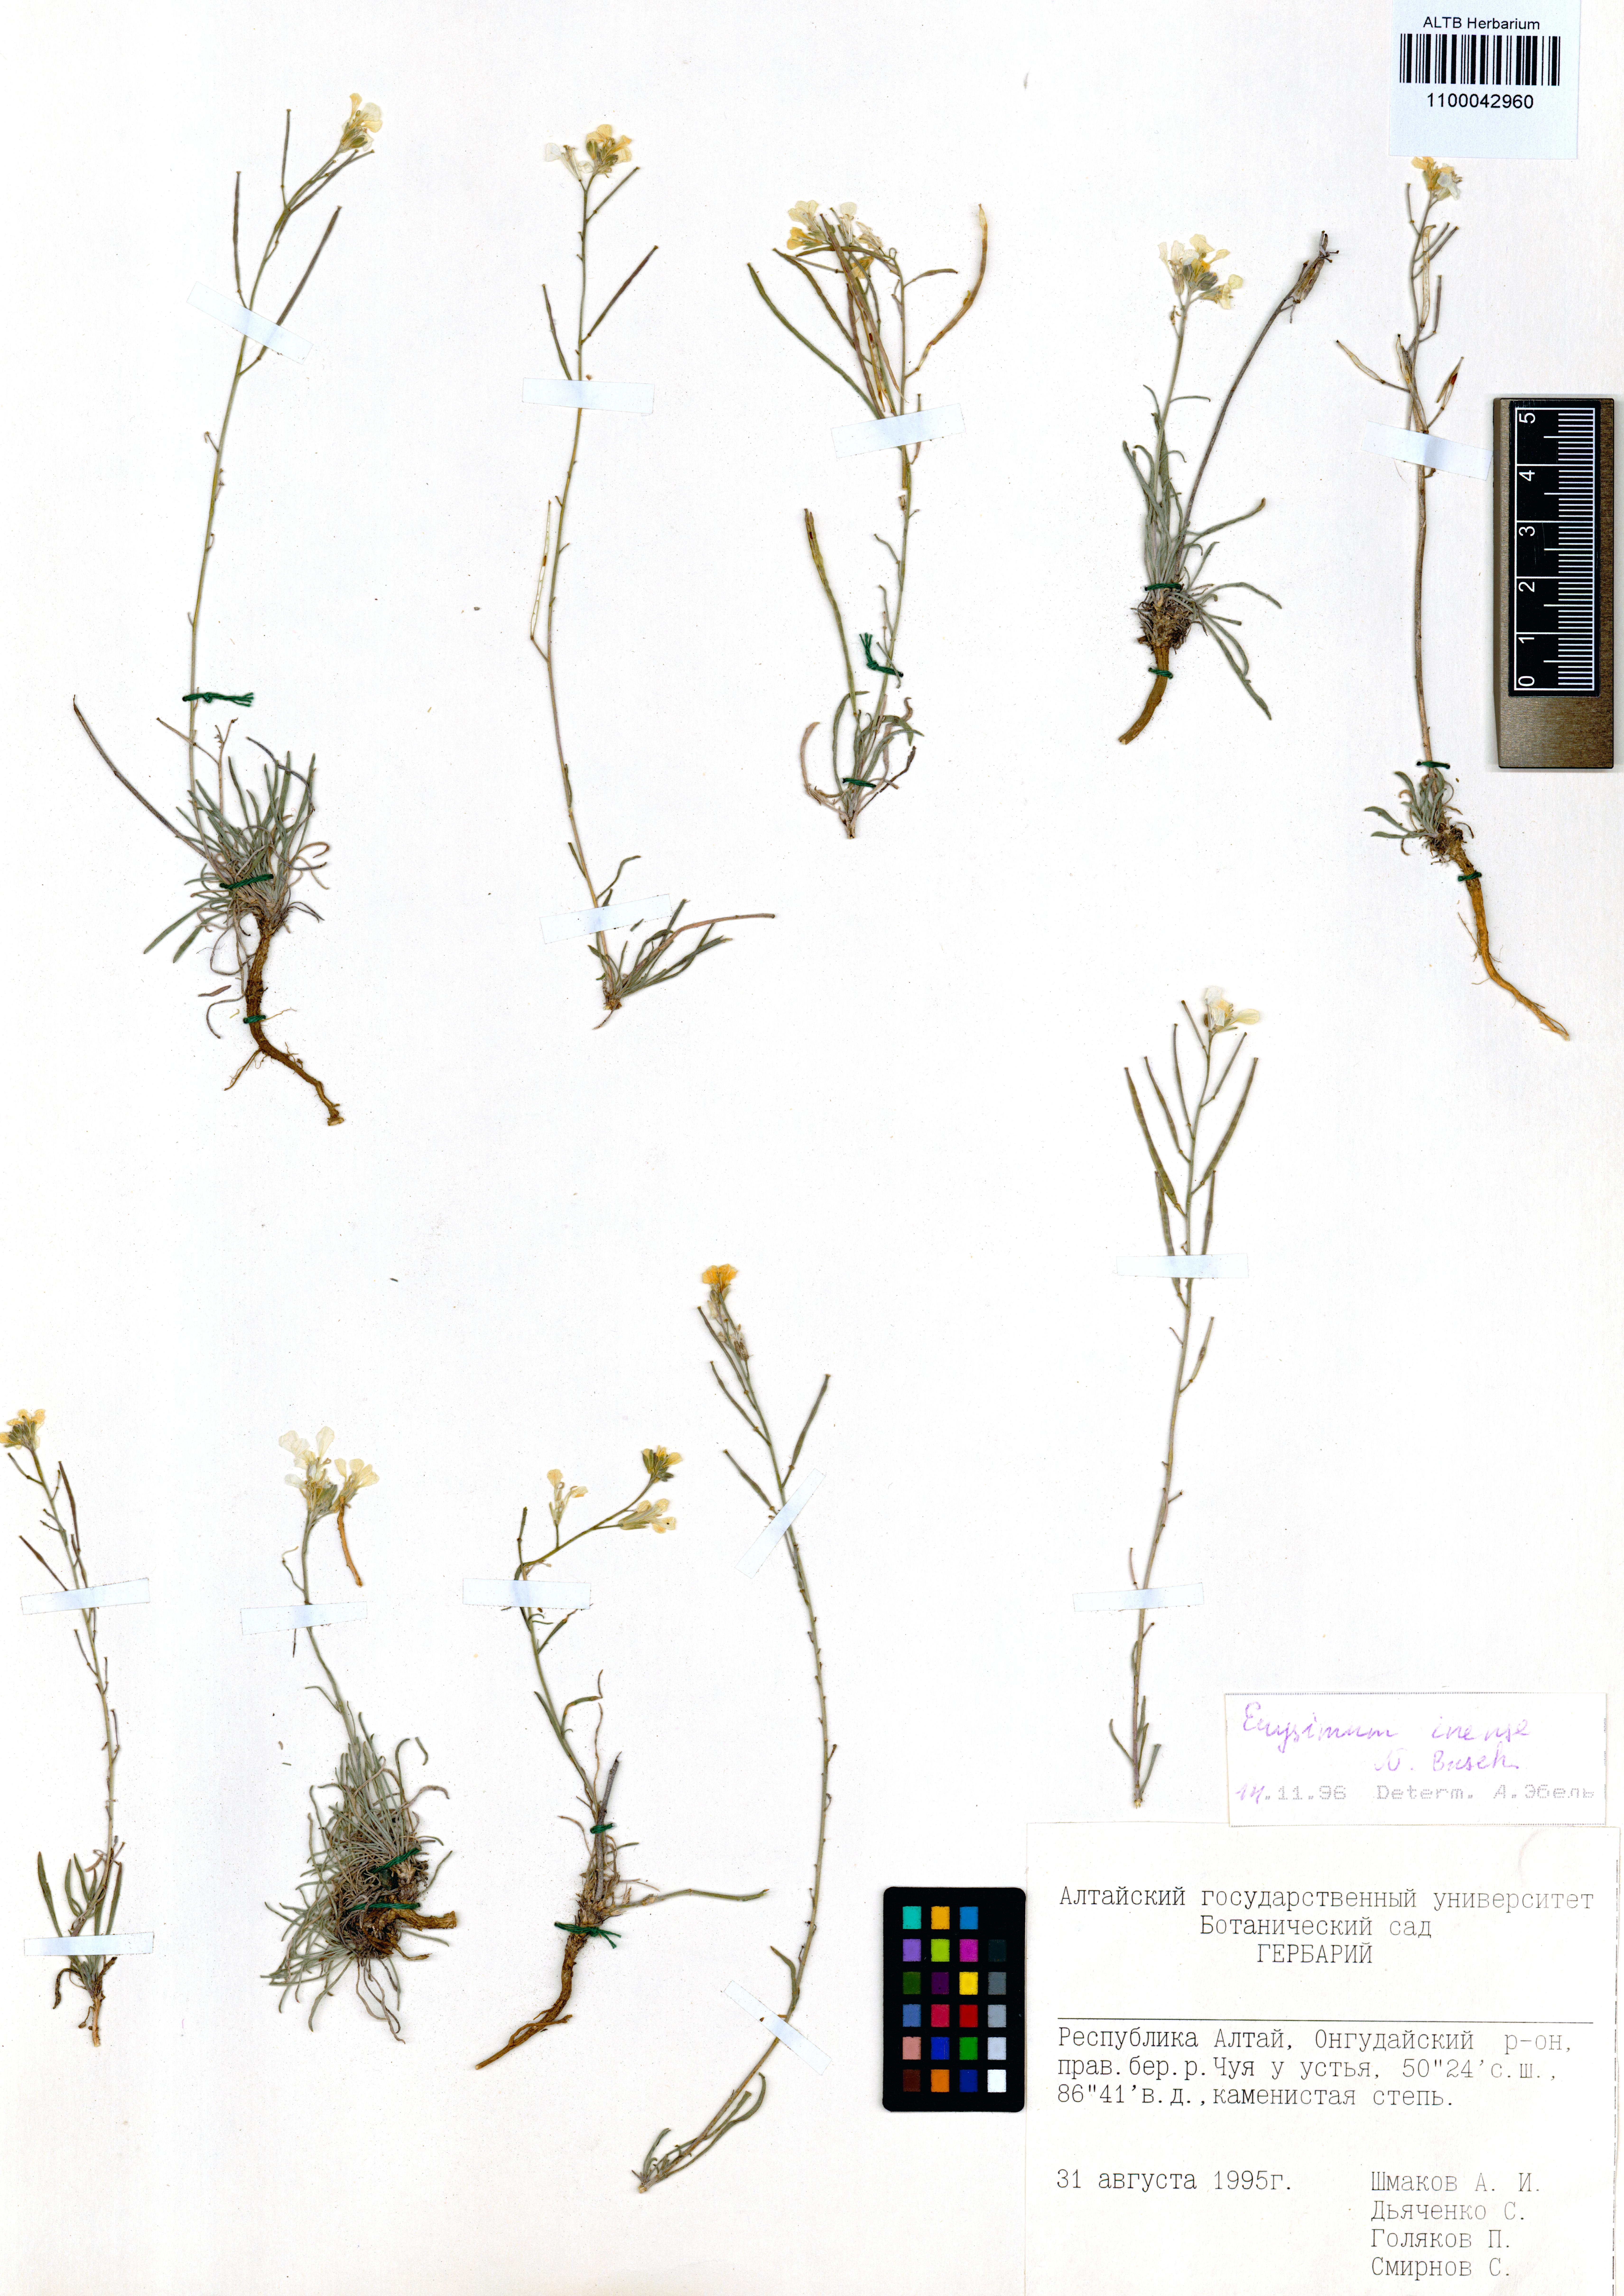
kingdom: Plantae
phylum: Tracheophyta
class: Magnoliopsida
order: Brassicales
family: Brassicaceae
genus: Erysimum
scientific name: Erysimum inense
